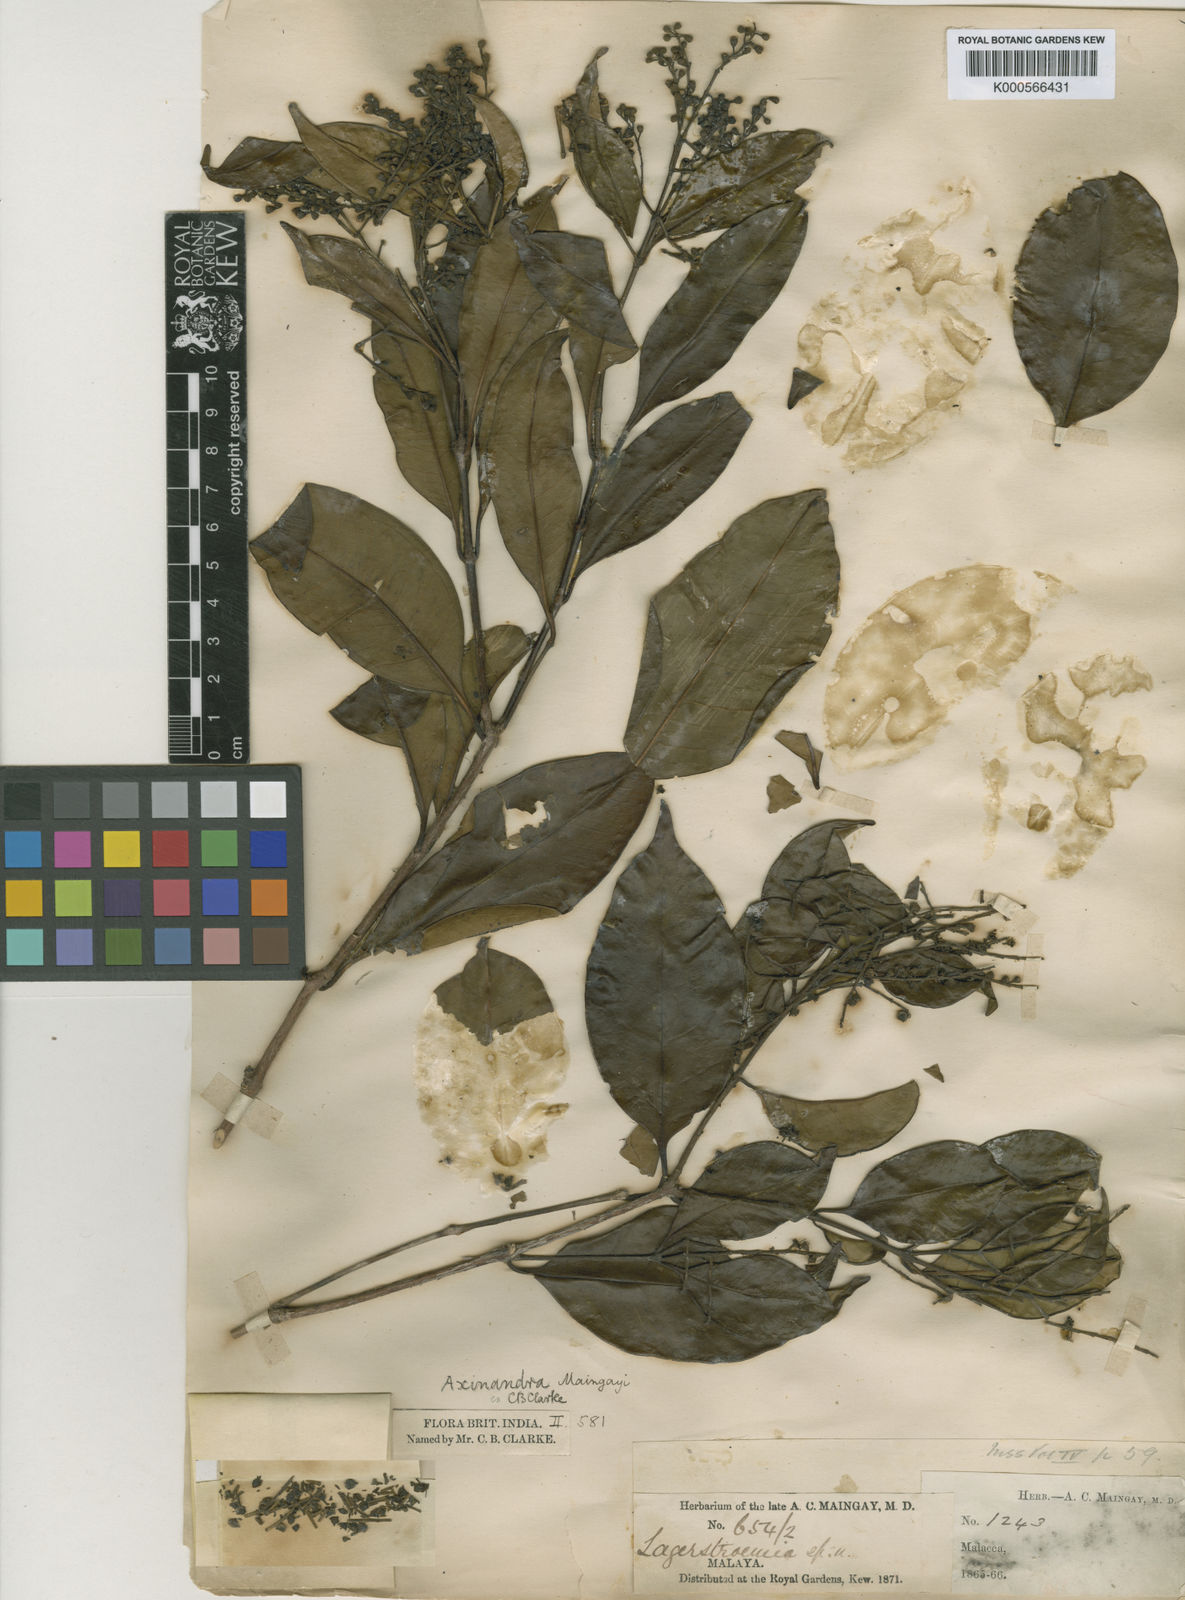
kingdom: Plantae
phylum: Tracheophyta
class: Magnoliopsida
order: Myrtales
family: Crypteroniaceae
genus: Axinandra
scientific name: Axinandra beccariana
